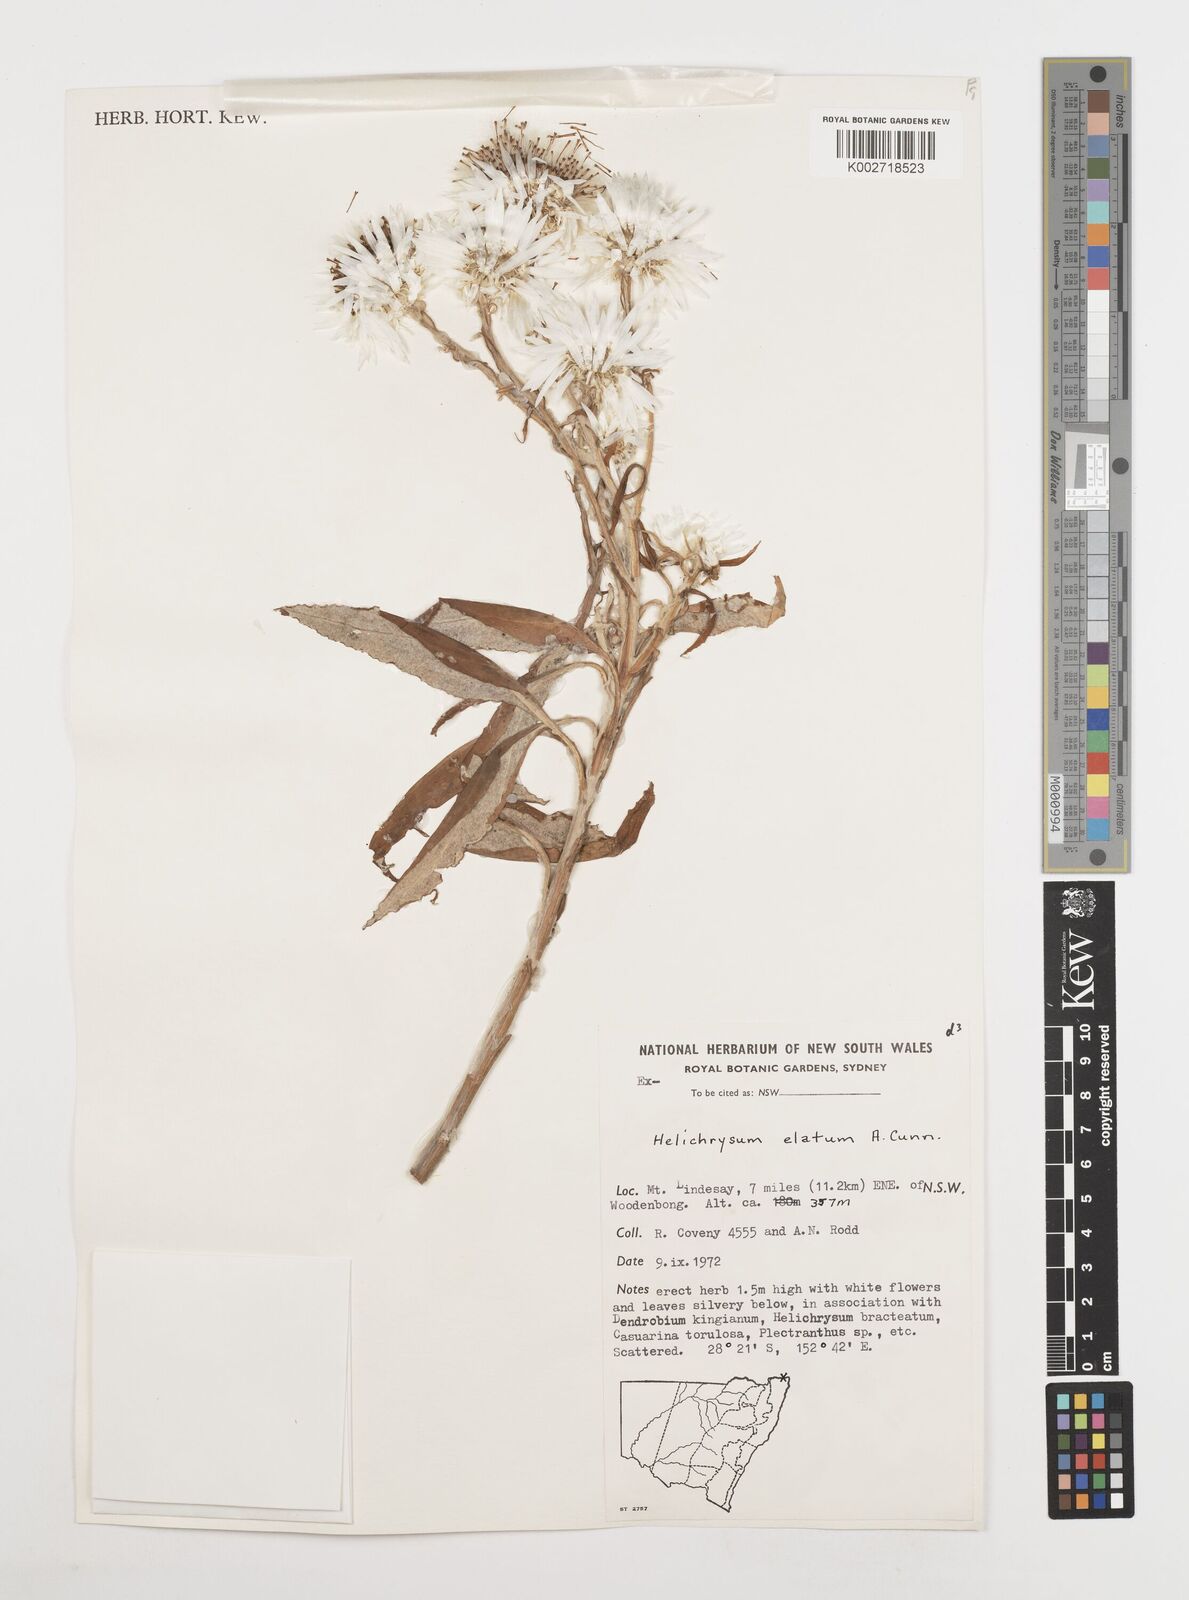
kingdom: Plantae
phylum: Tracheophyta
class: Magnoliopsida
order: Asterales
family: Asteraceae
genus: Leucozoma
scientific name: Leucozoma elatum
